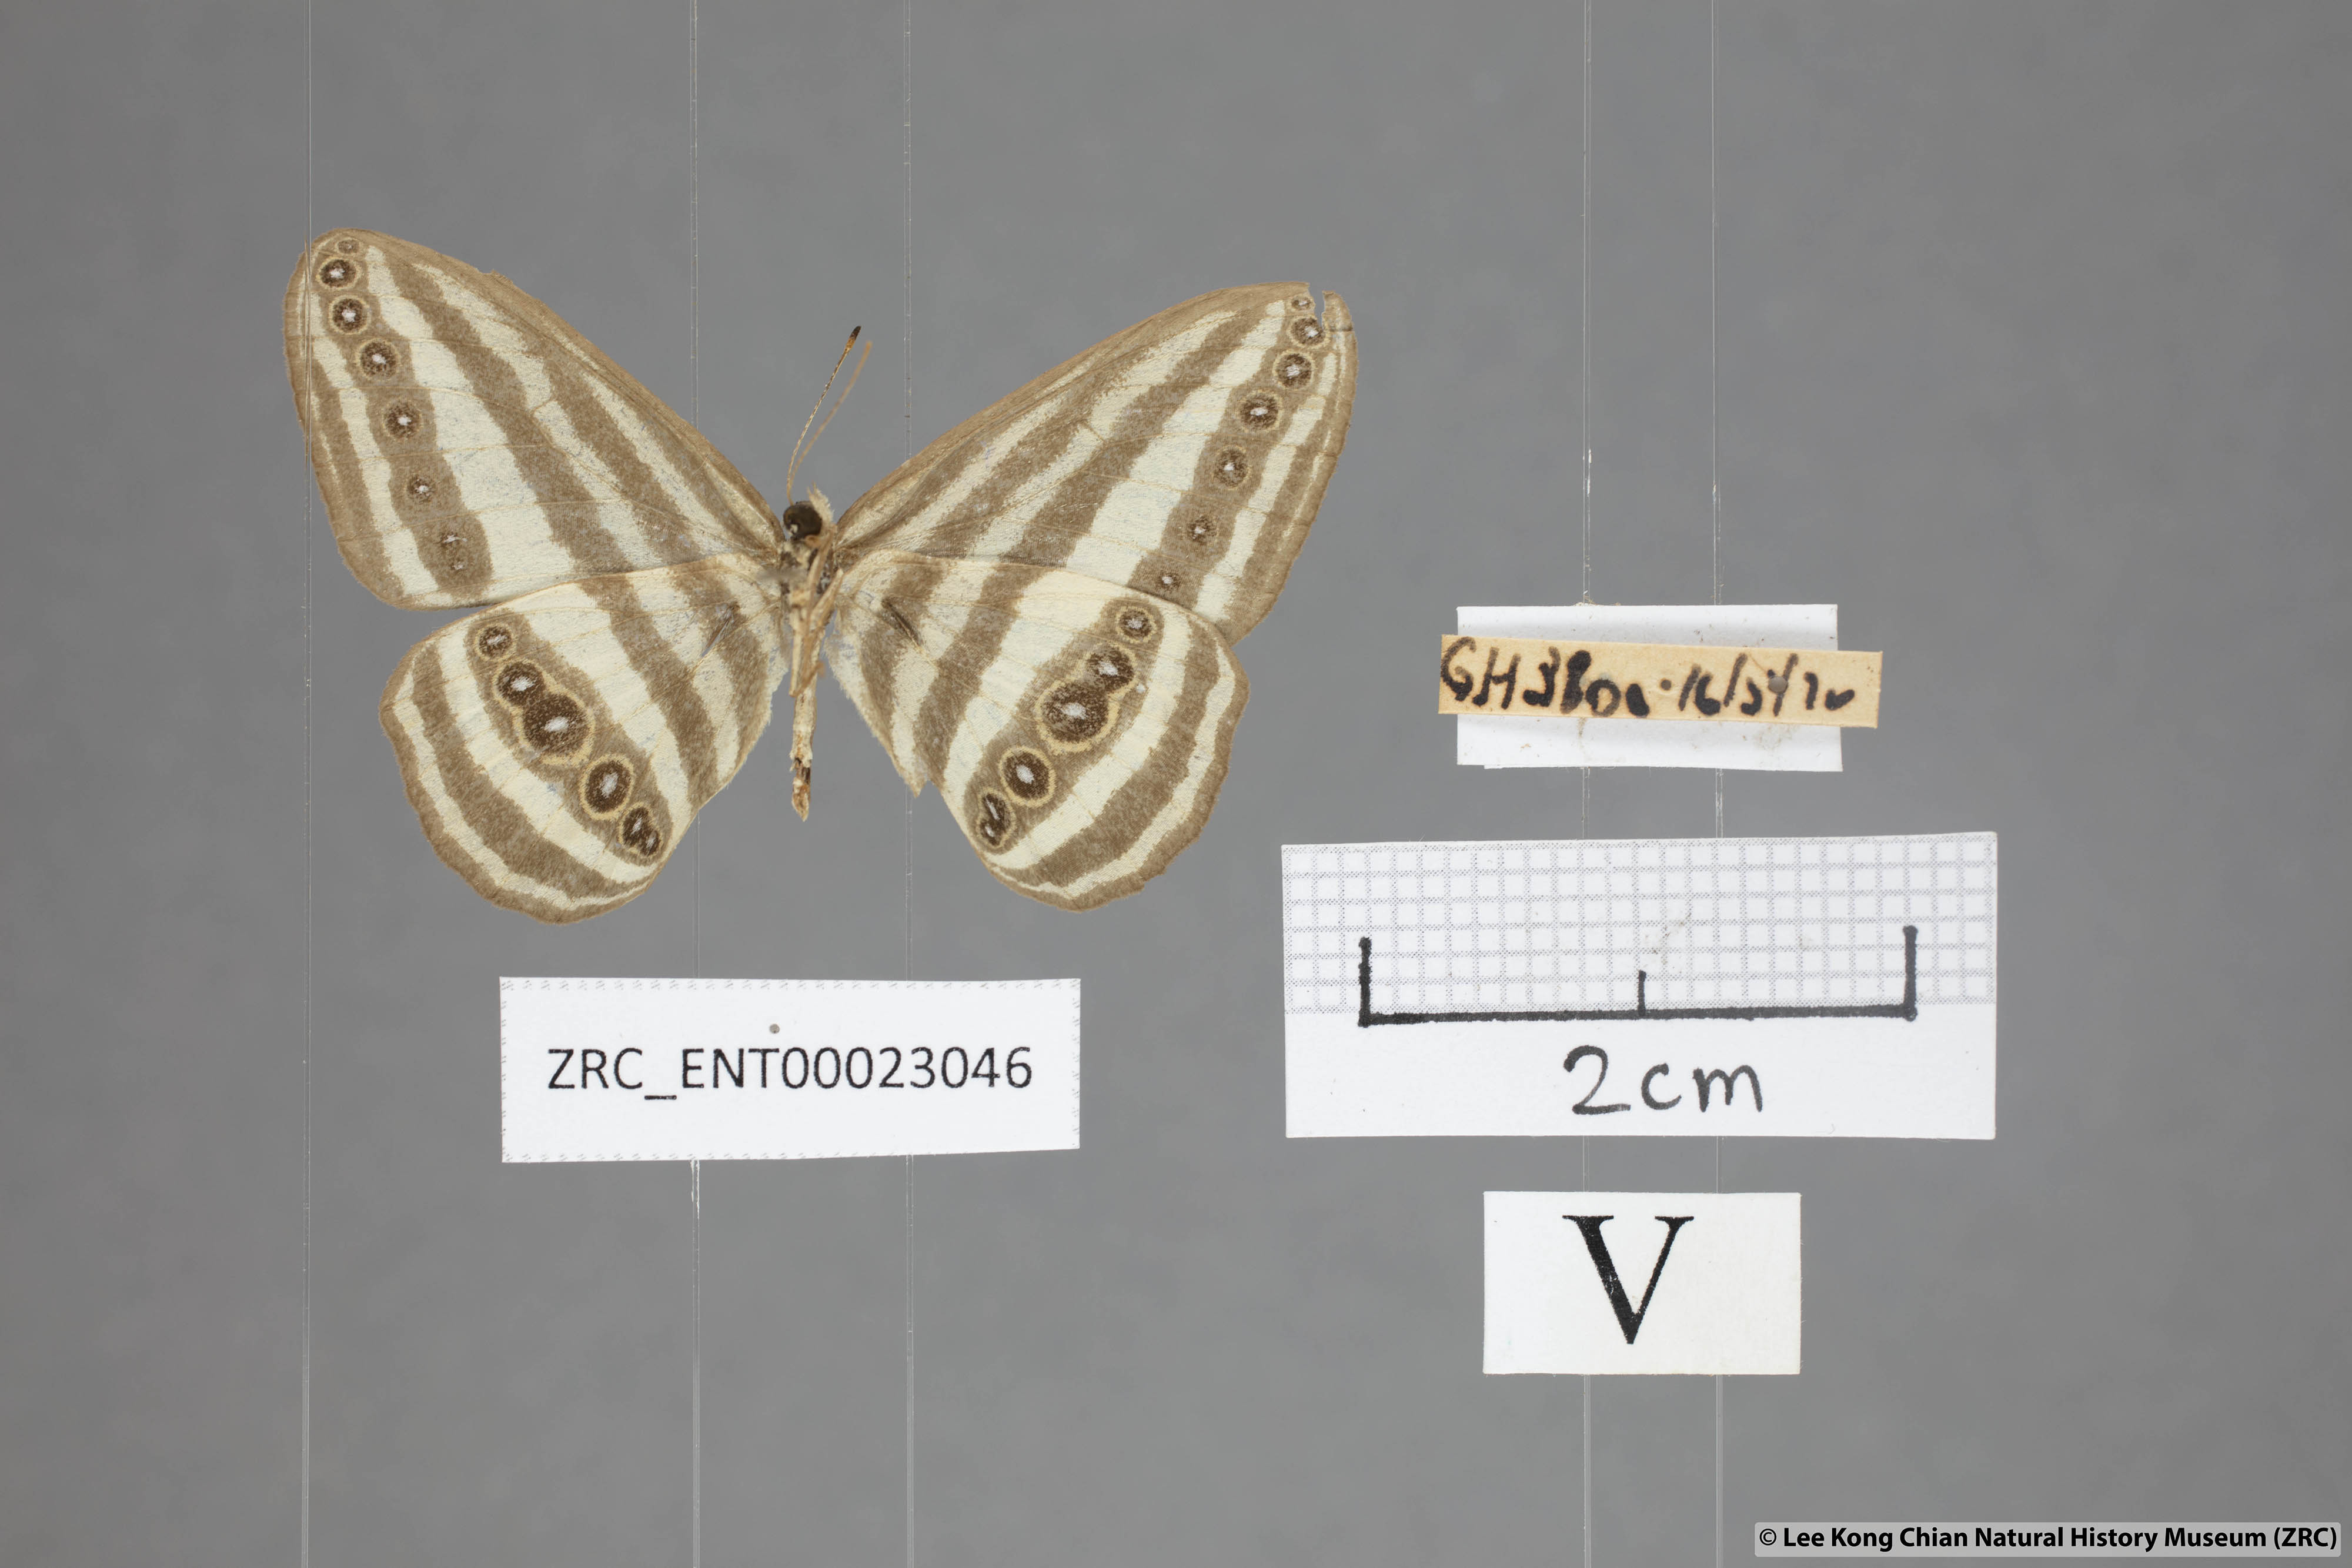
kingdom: Animalia
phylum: Arthropoda
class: Insecta
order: Lepidoptera
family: Nymphalidae
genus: Ragadia
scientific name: Ragadia crisilda
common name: White-striped ringlet
